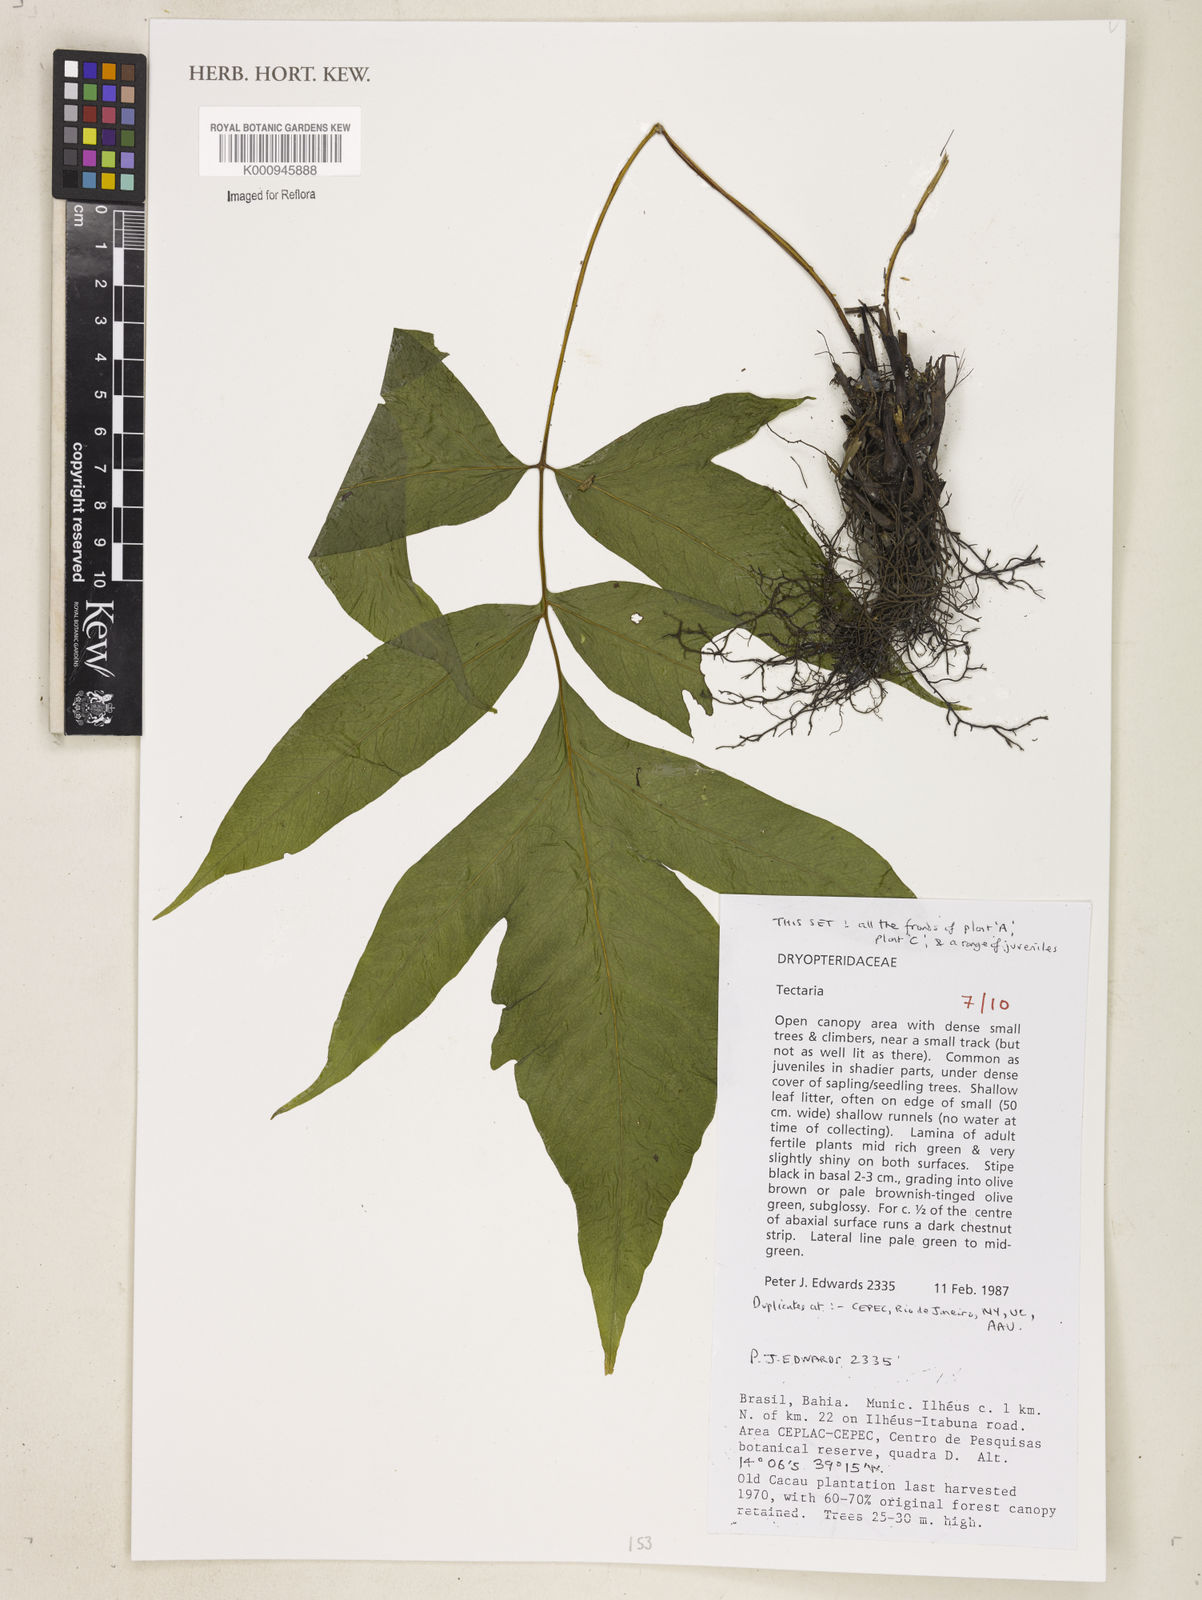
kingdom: Plantae
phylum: Tracheophyta
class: Polypodiopsida
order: Polypodiales
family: Tectariaceae
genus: Tectaria
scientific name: Tectaria
